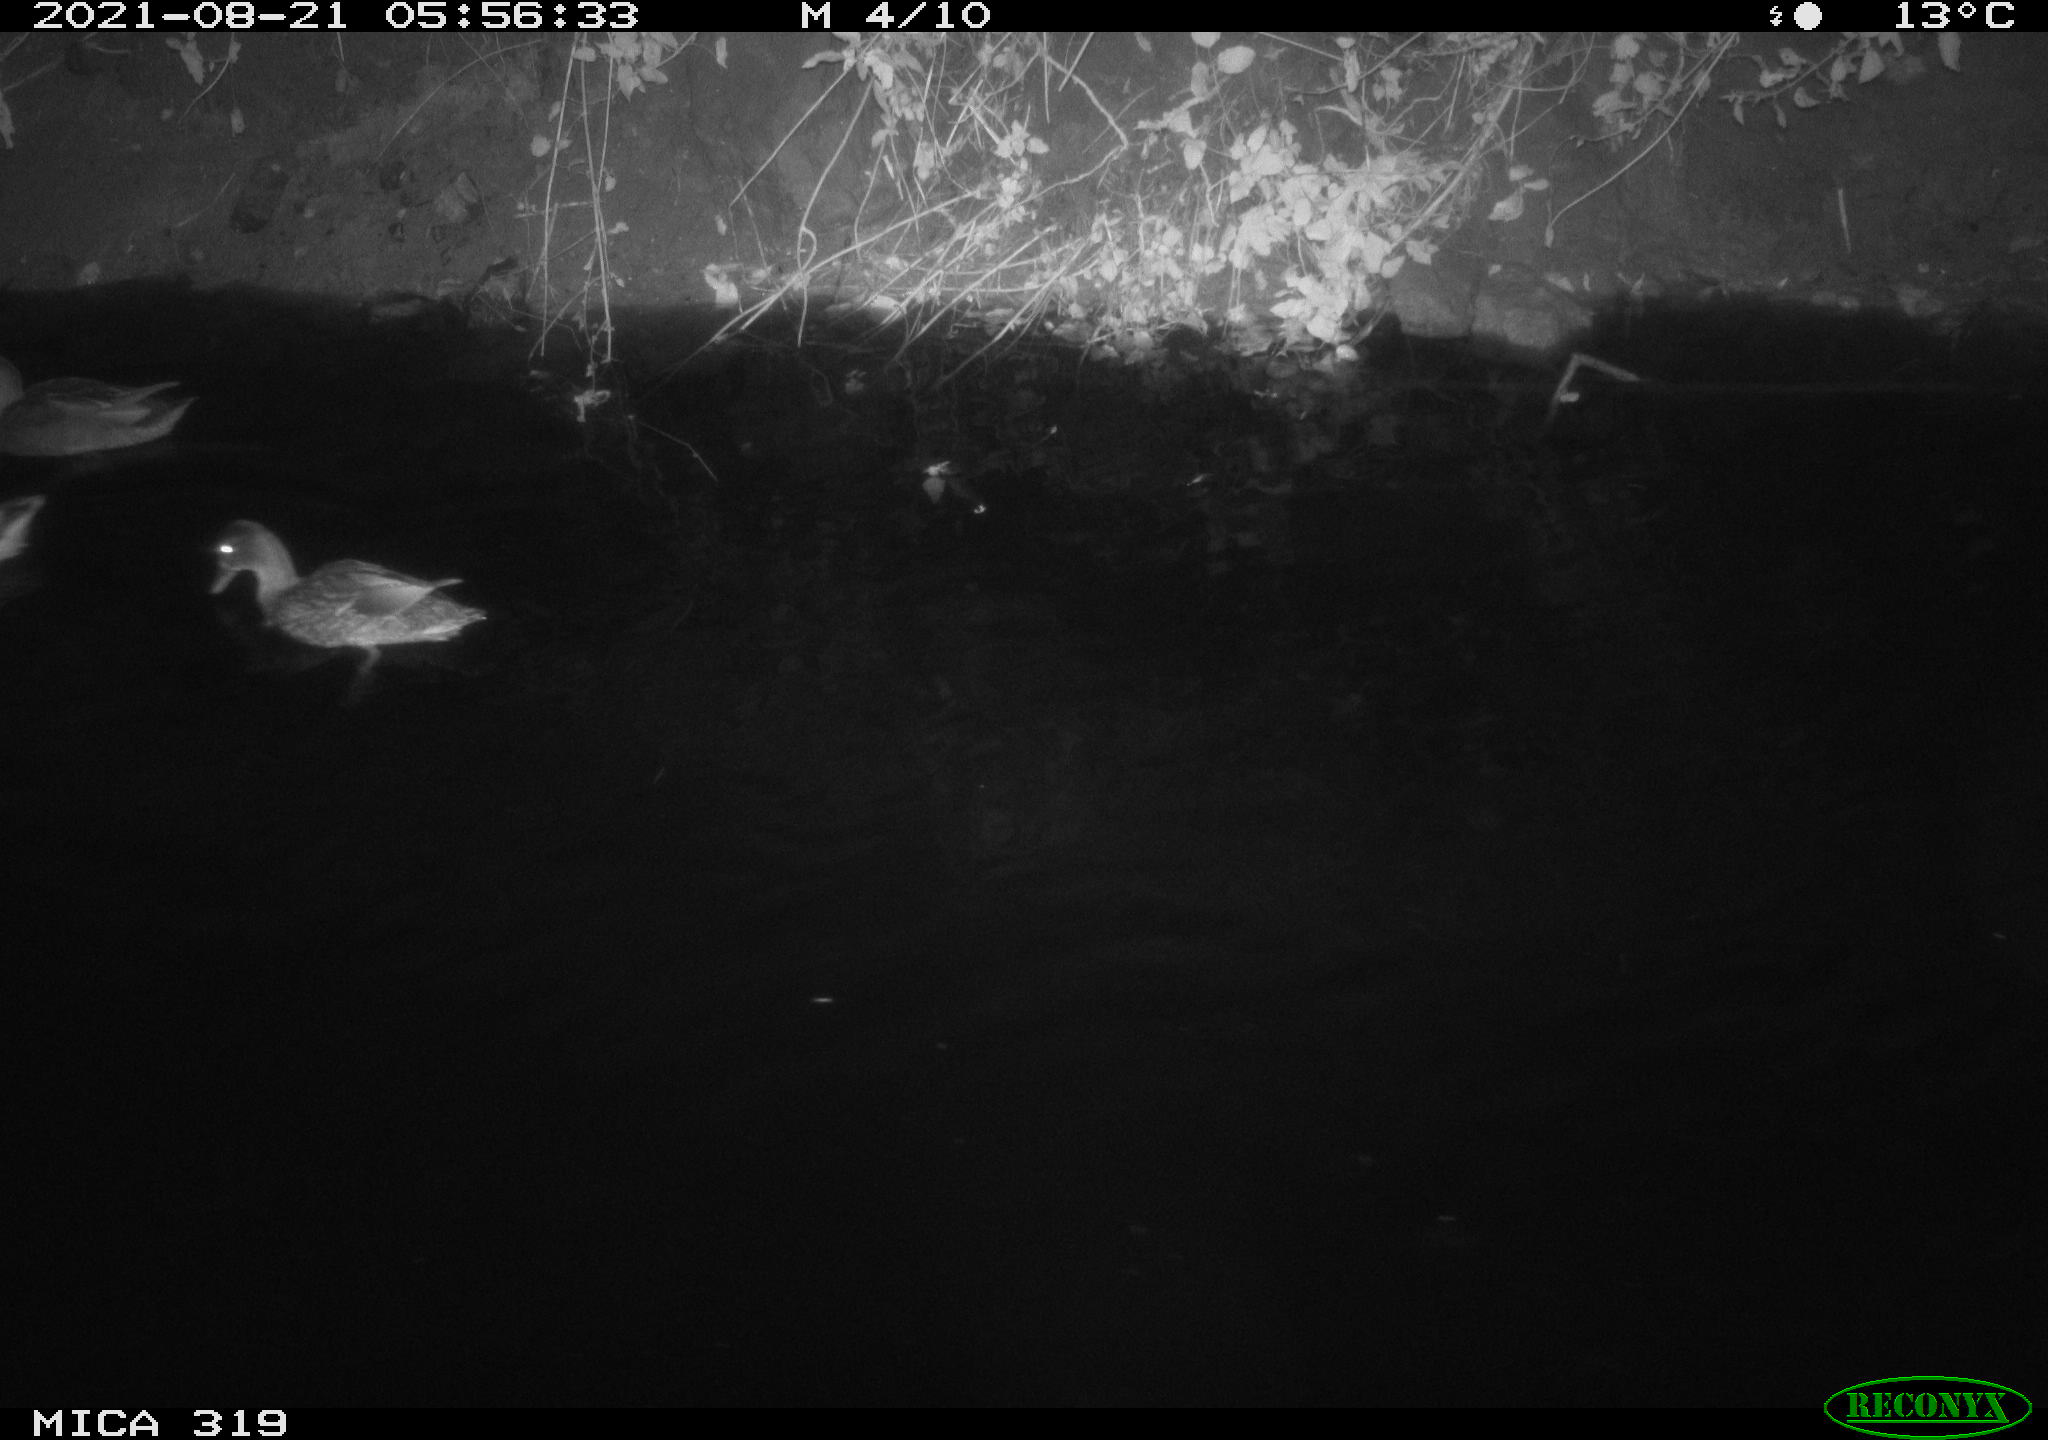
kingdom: Animalia
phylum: Chordata
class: Aves
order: Anseriformes
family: Anatidae
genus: Anas
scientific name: Anas platyrhynchos
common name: Mallard
